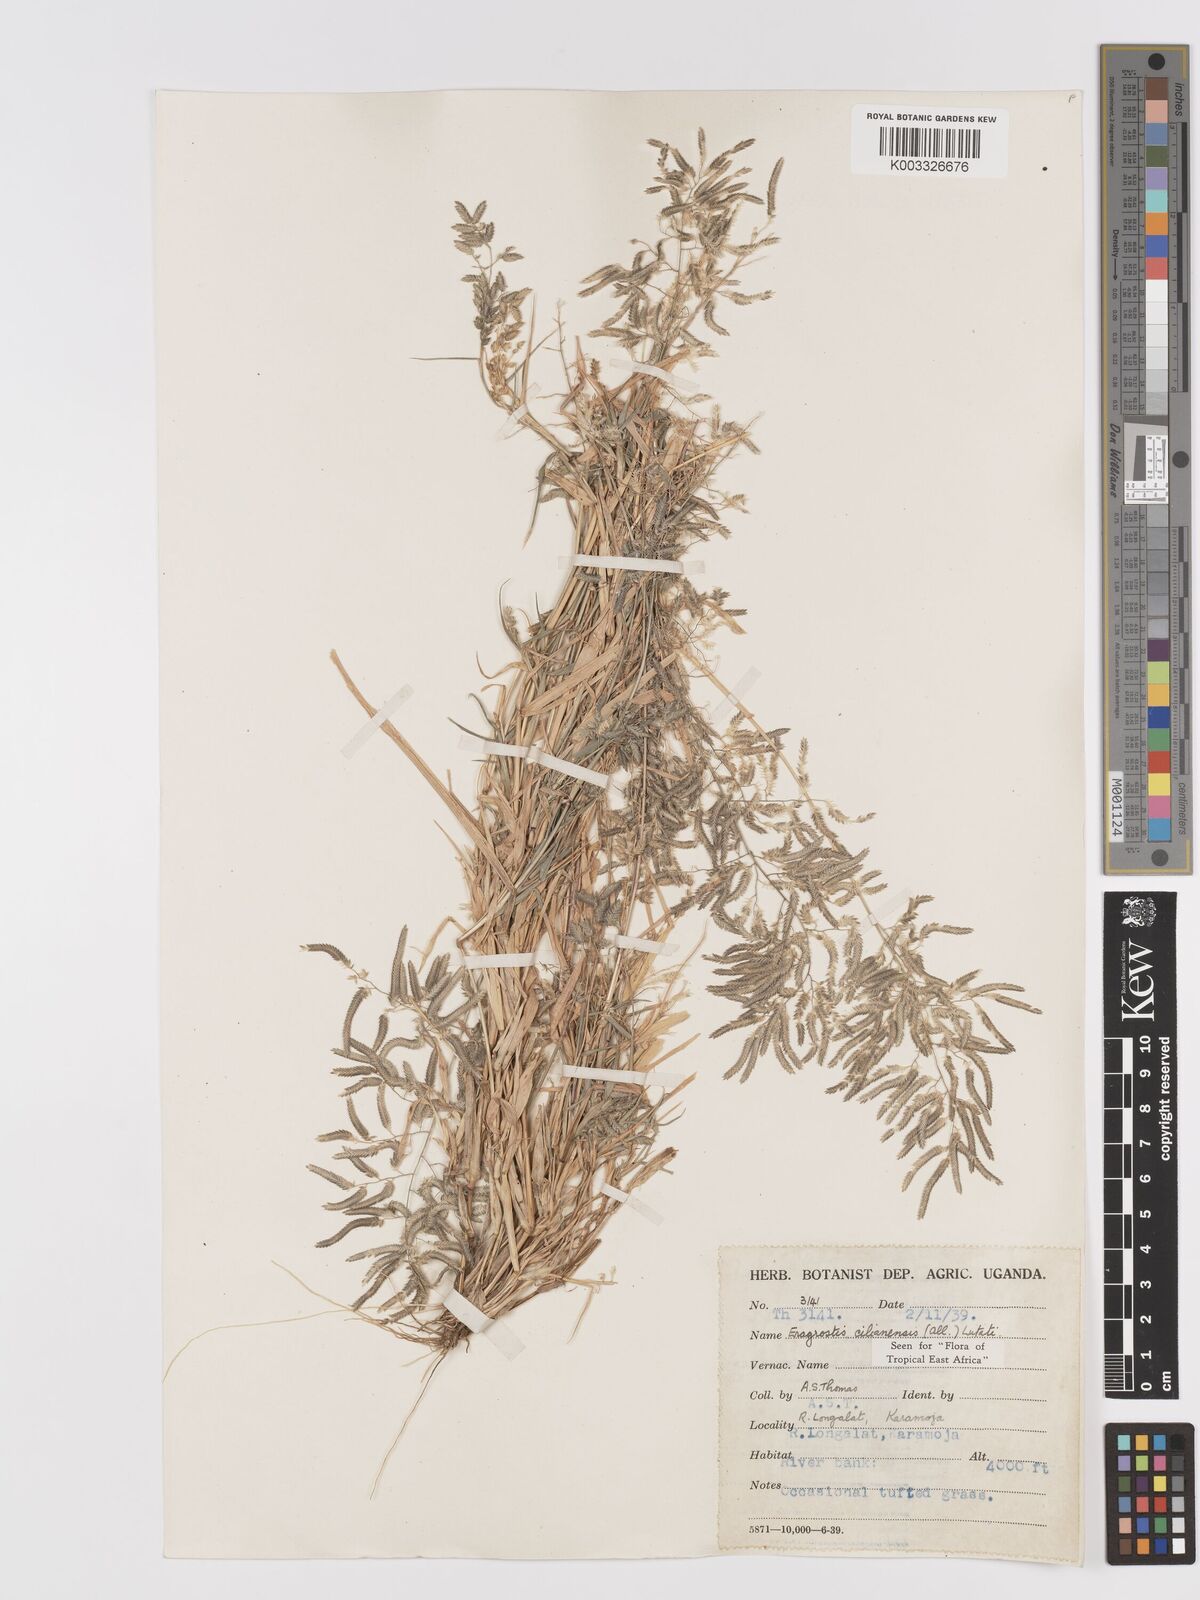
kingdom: Plantae
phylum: Tracheophyta
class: Liliopsida
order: Poales
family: Poaceae
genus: Eragrostis
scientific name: Eragrostis cilianensis
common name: Stinkgrass
